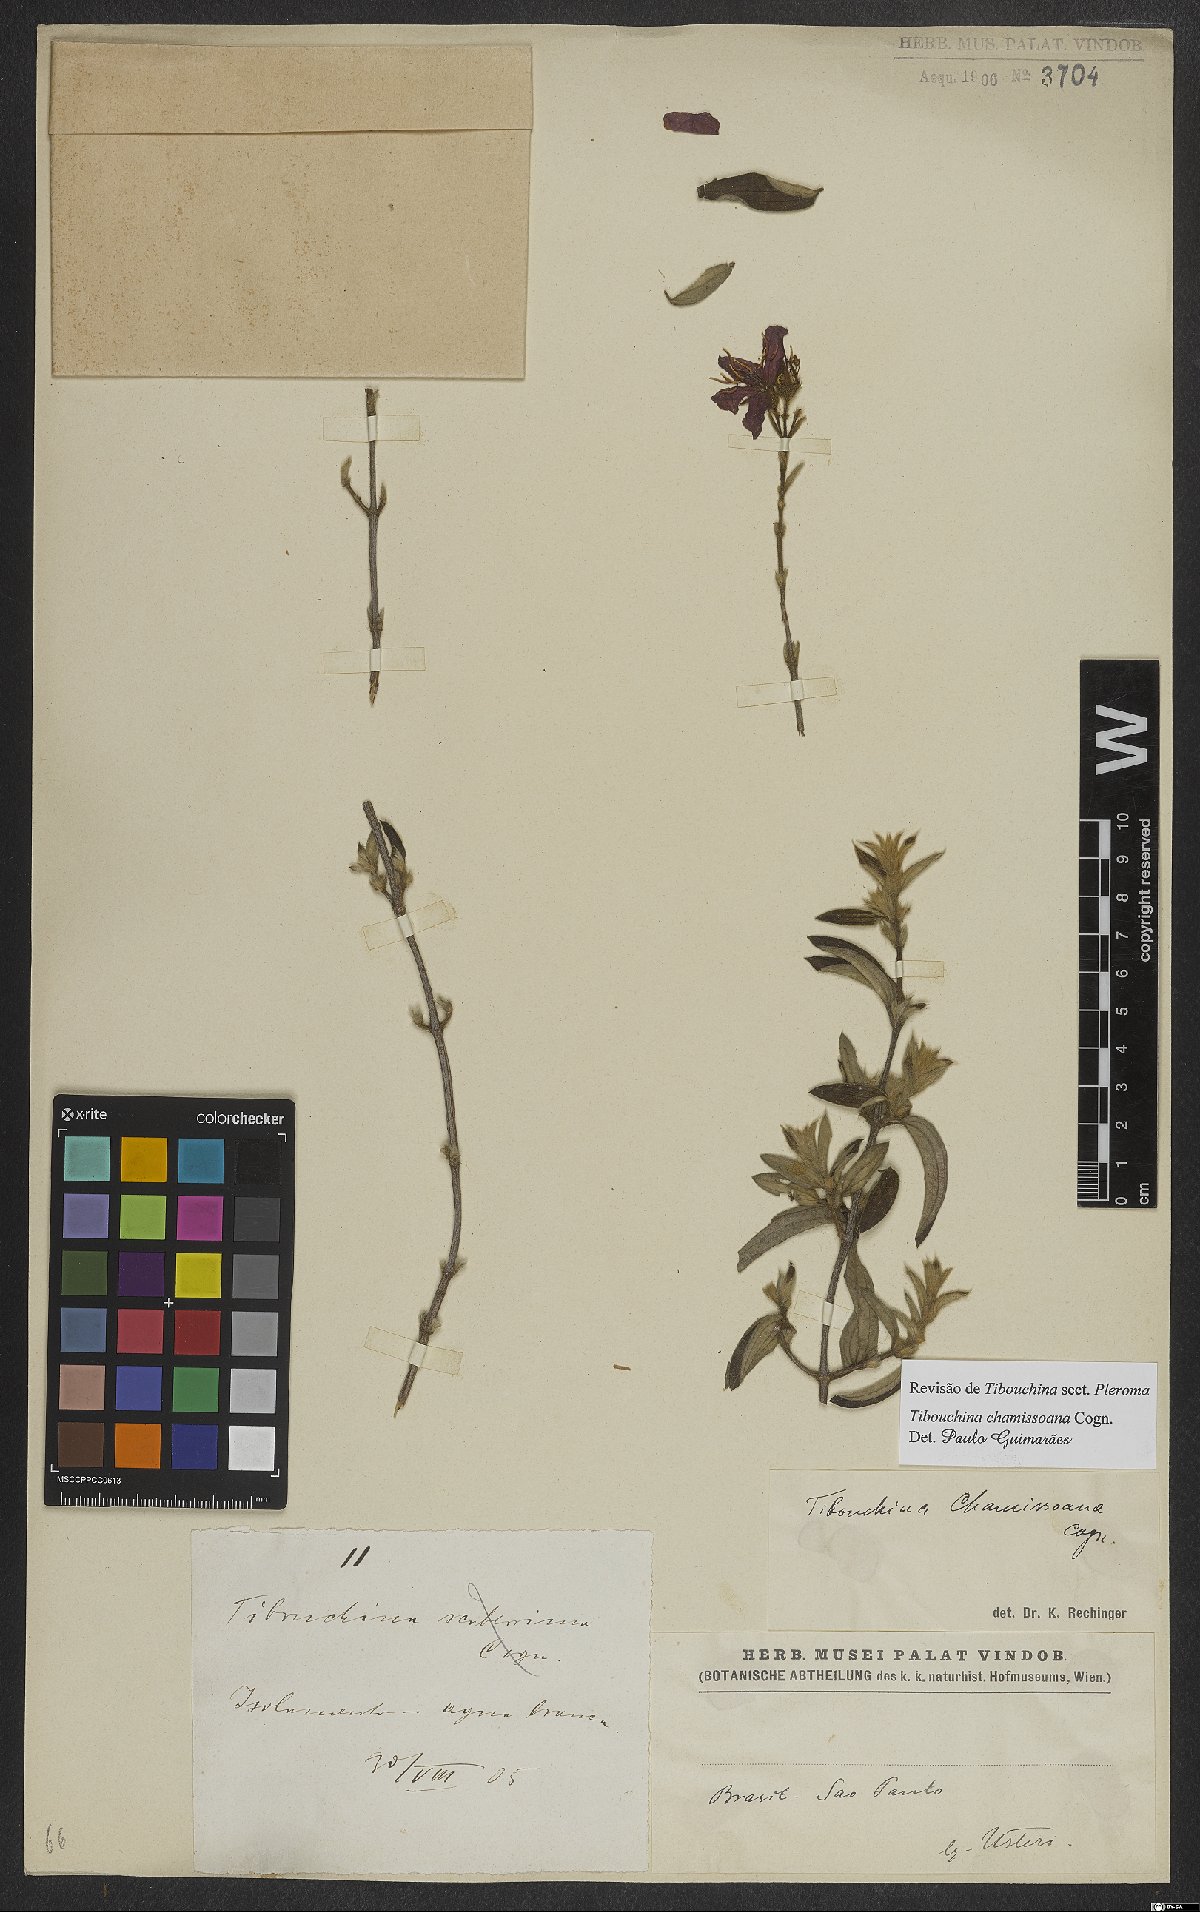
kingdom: Plantae
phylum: Tracheophyta
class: Magnoliopsida
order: Myrtales
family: Melastomataceae
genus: Pleroma
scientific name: Pleroma molle
